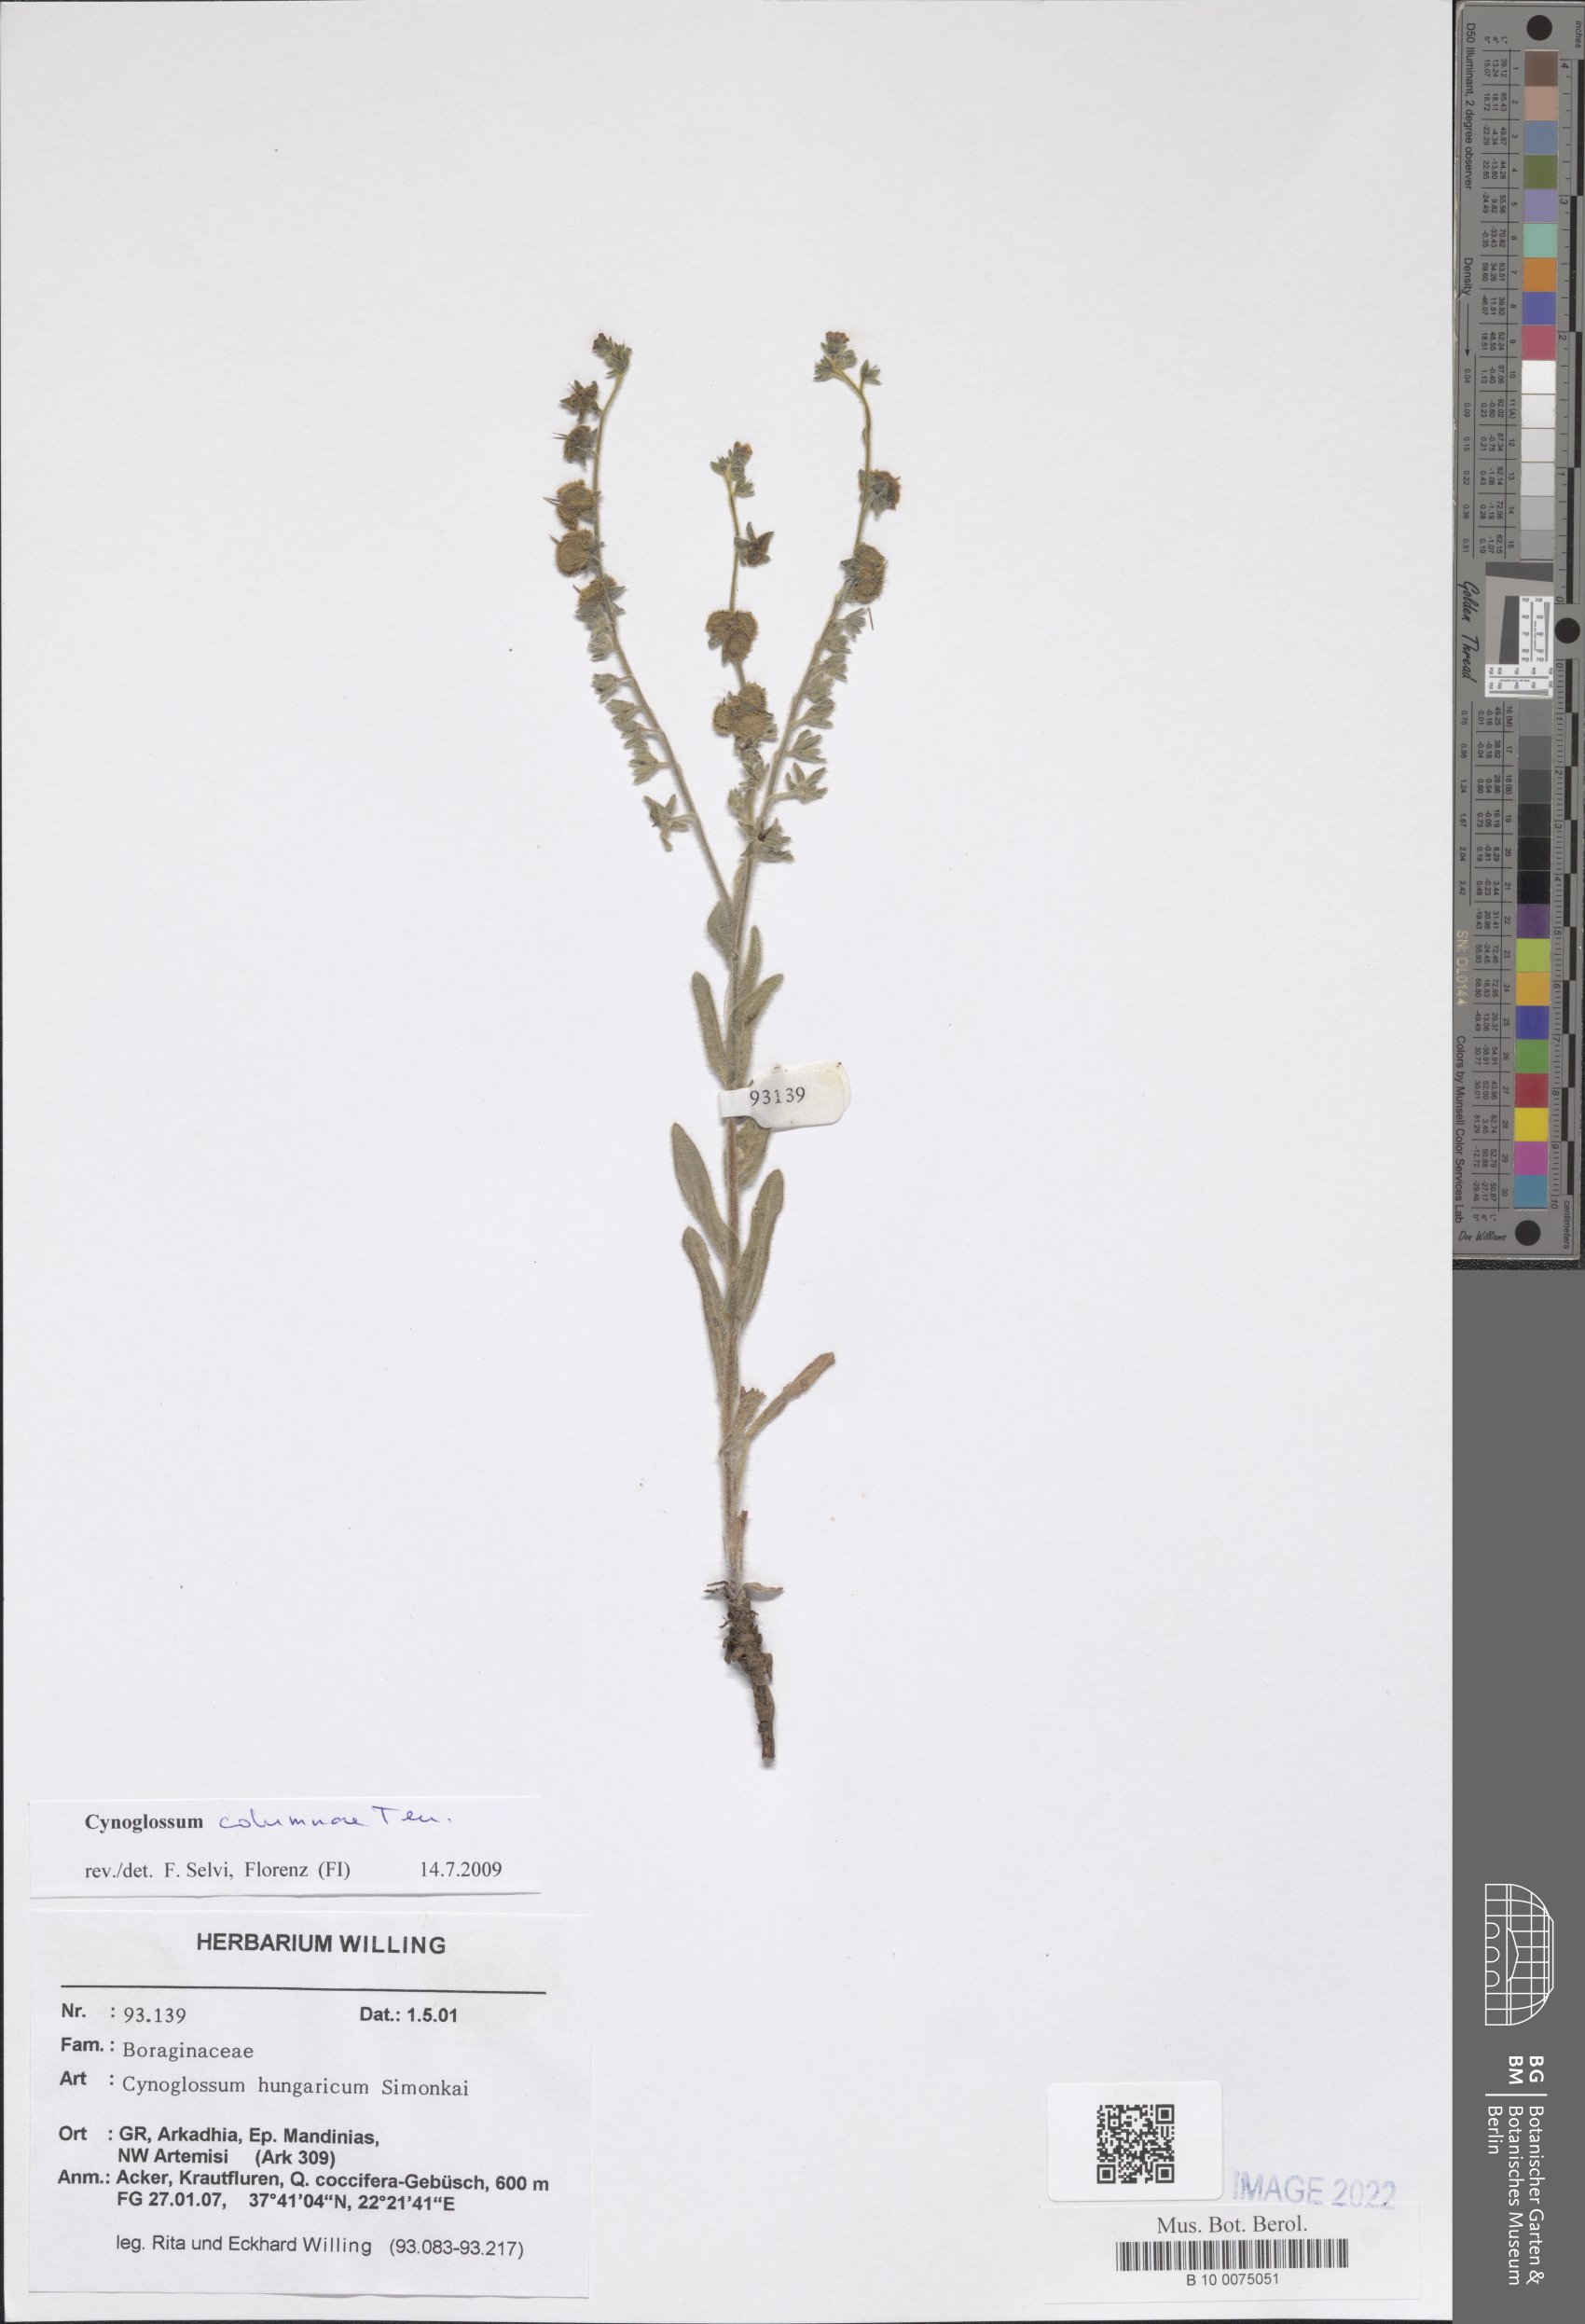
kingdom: Plantae
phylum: Tracheophyta
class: Magnoliopsida
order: Boraginales
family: Boraginaceae
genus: Rindera
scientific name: Rindera columnae
